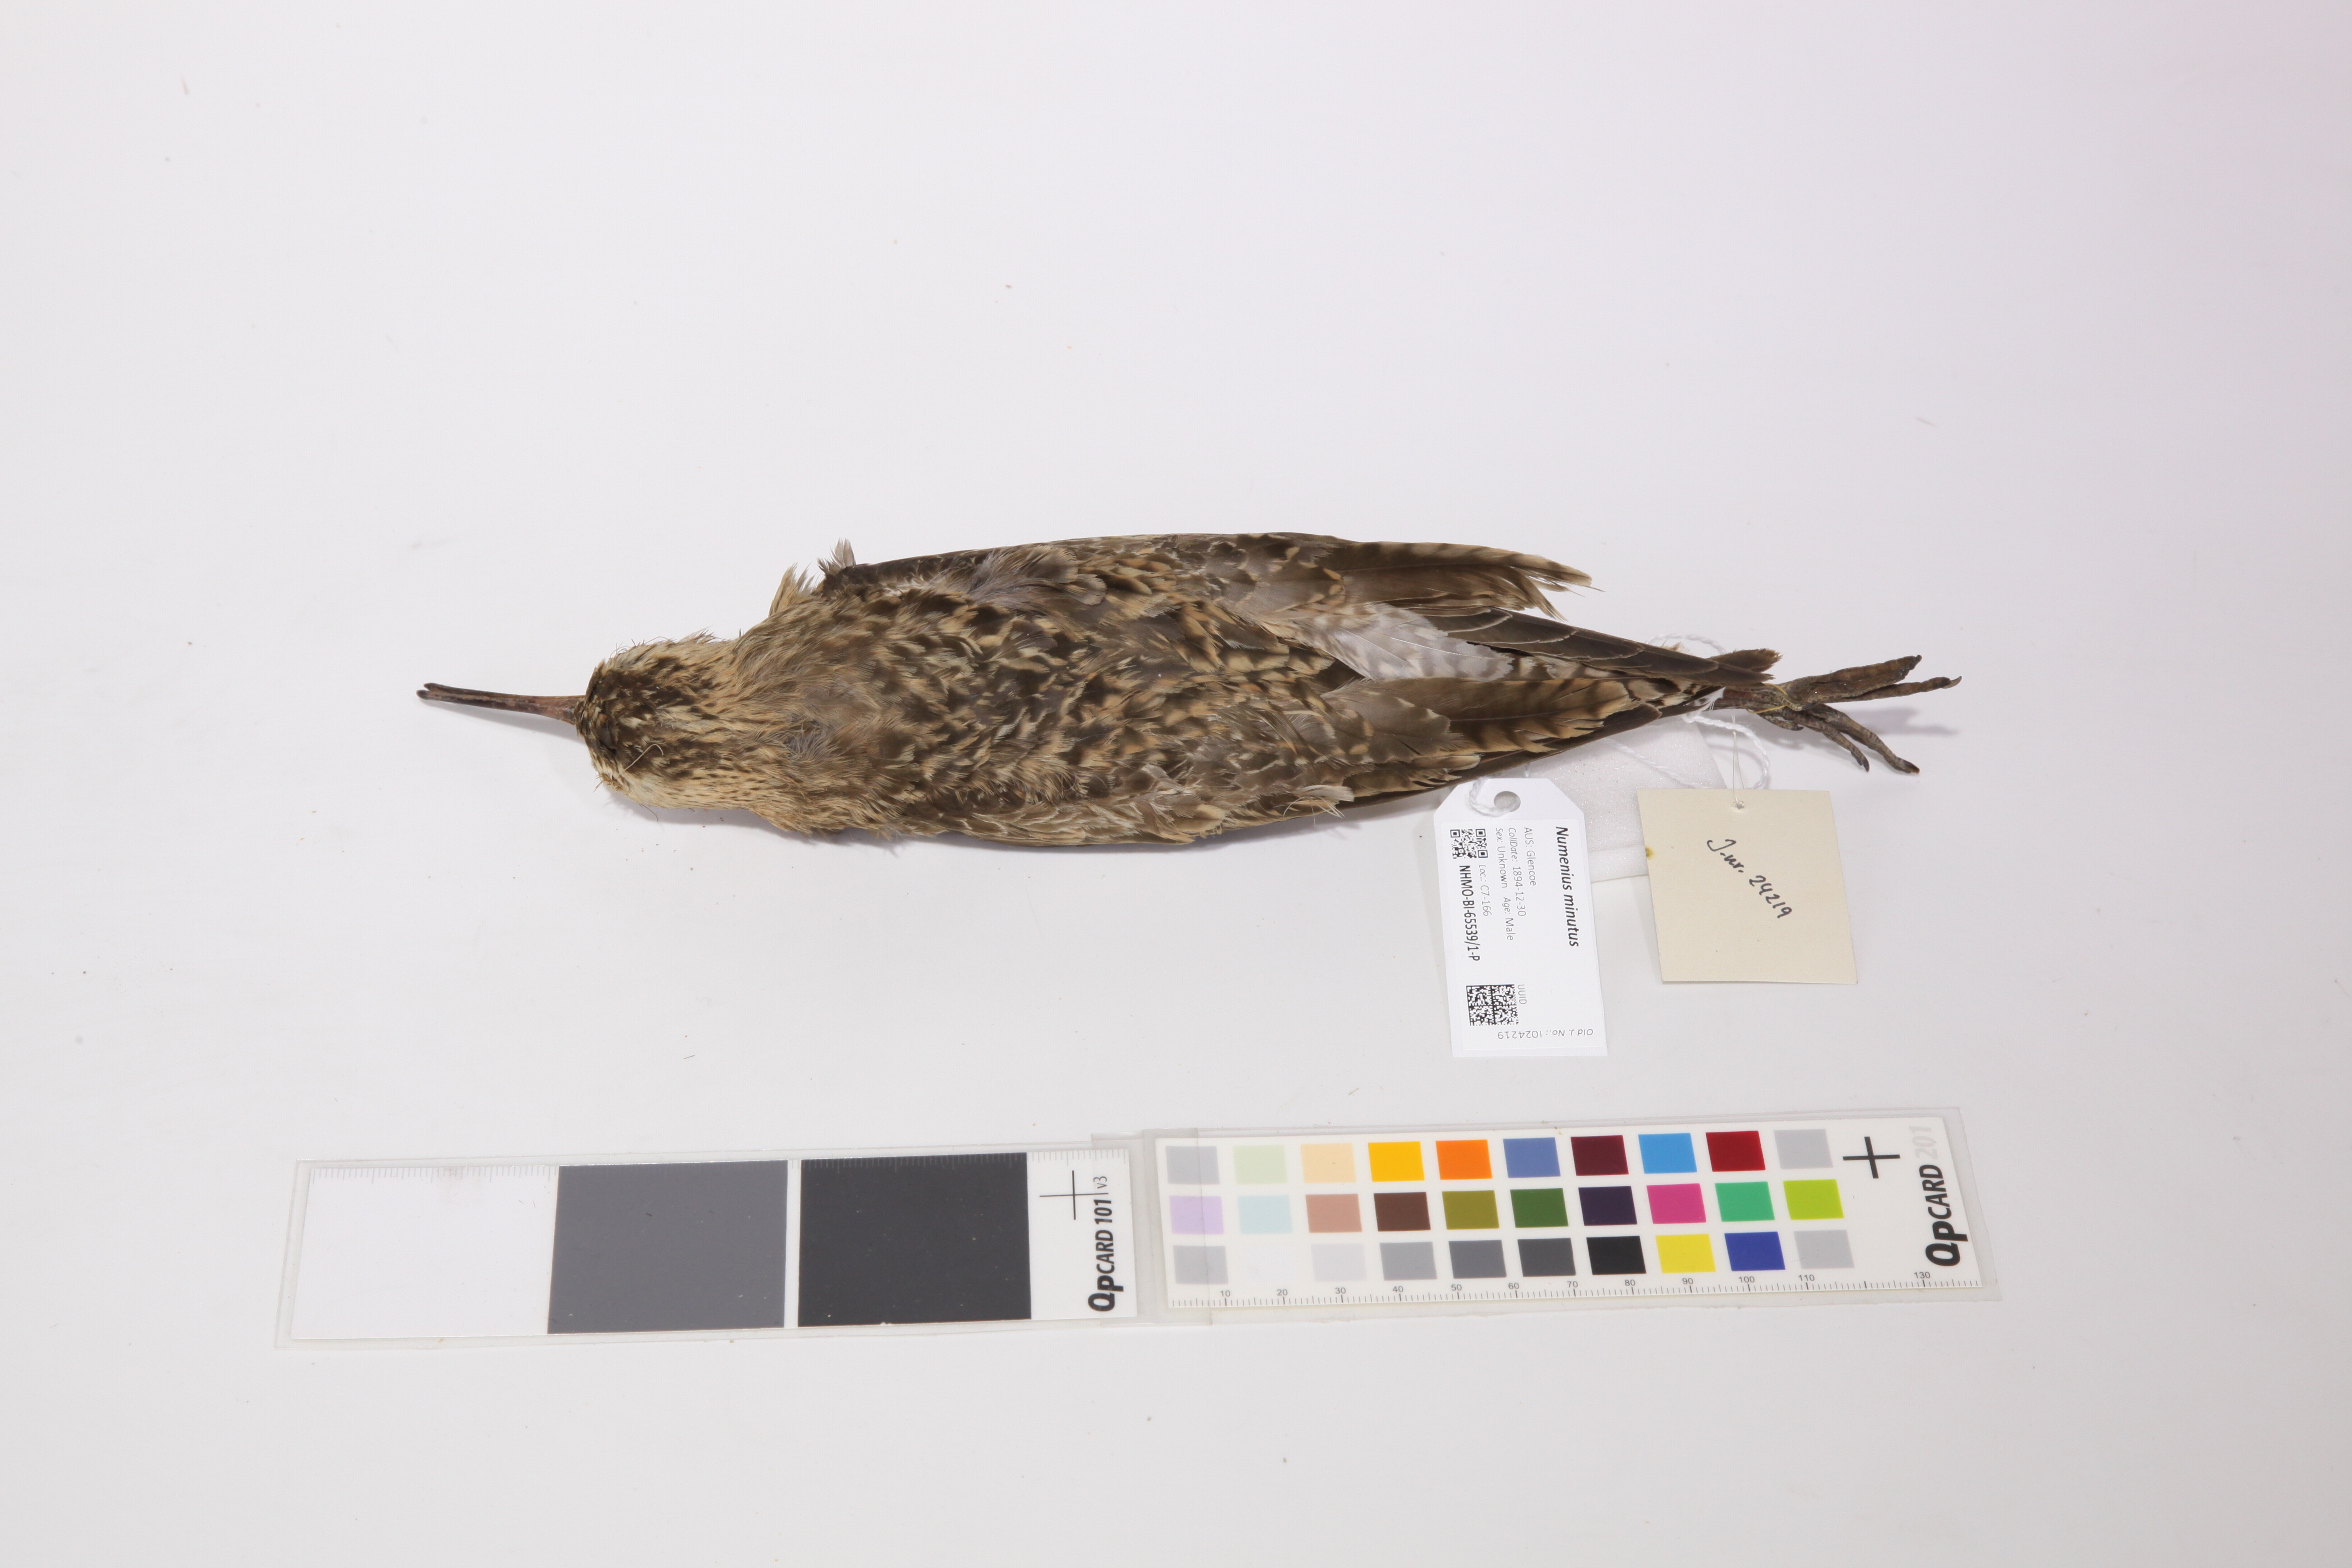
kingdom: Animalia
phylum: Chordata
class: Aves
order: Charadriiformes
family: Scolopacidae
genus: Numenius
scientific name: Numenius minutus
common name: Little curlew
